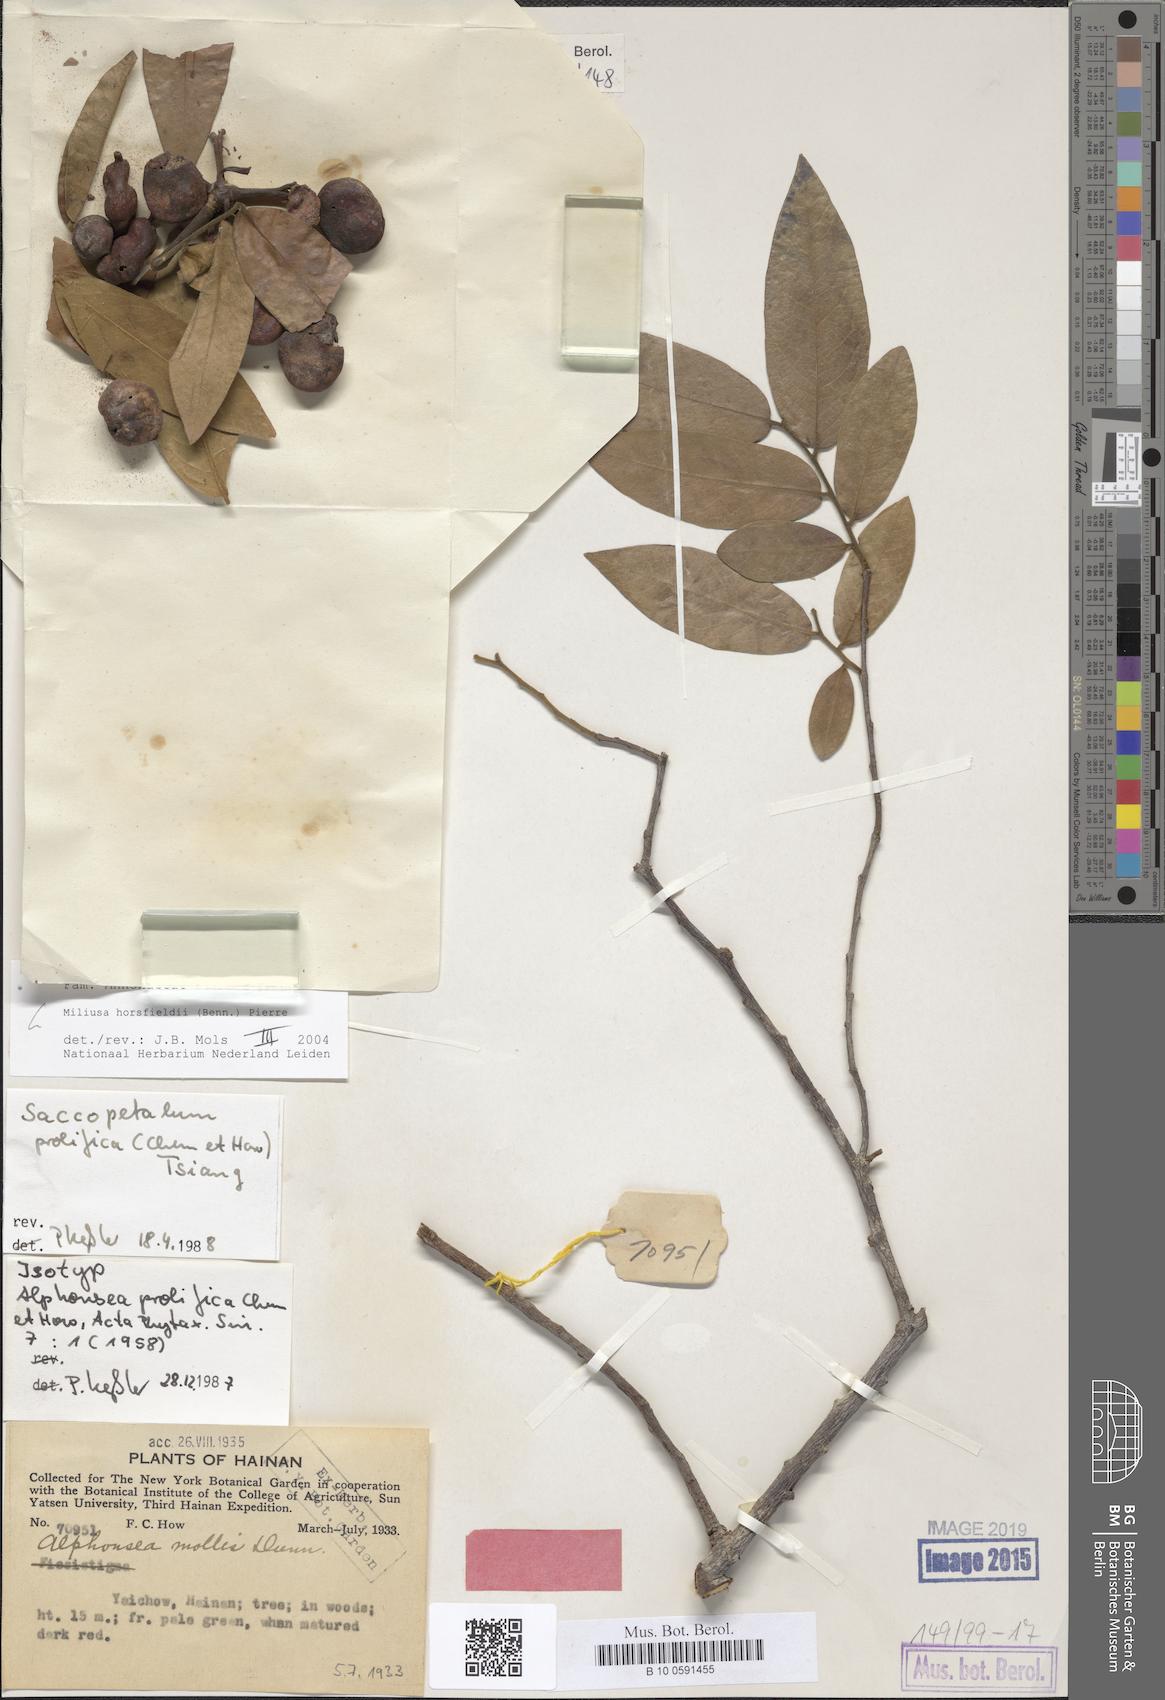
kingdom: Plantae
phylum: Tracheophyta
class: Magnoliopsida
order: Magnoliales
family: Annonaceae
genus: Miliusa
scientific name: Miliusa horsfieldii
